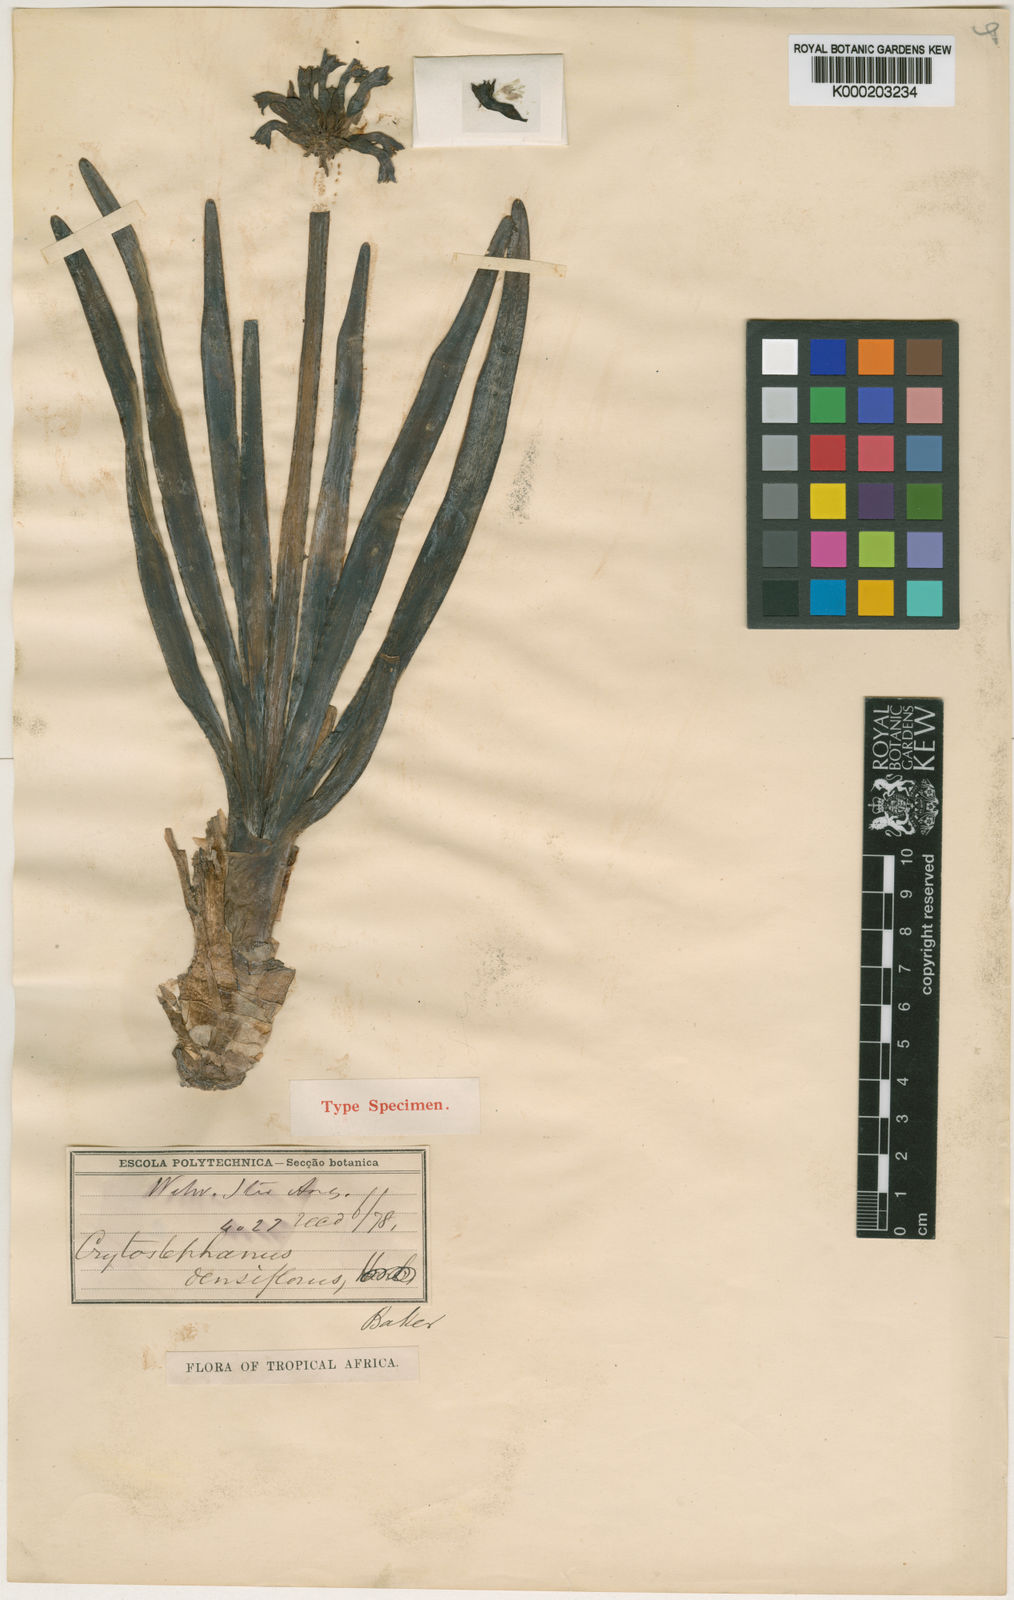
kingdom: Plantae
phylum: Tracheophyta
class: Liliopsida
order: Asparagales
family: Amaryllidaceae
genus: Cryptostephanus
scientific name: Cryptostephanus densiflorus
